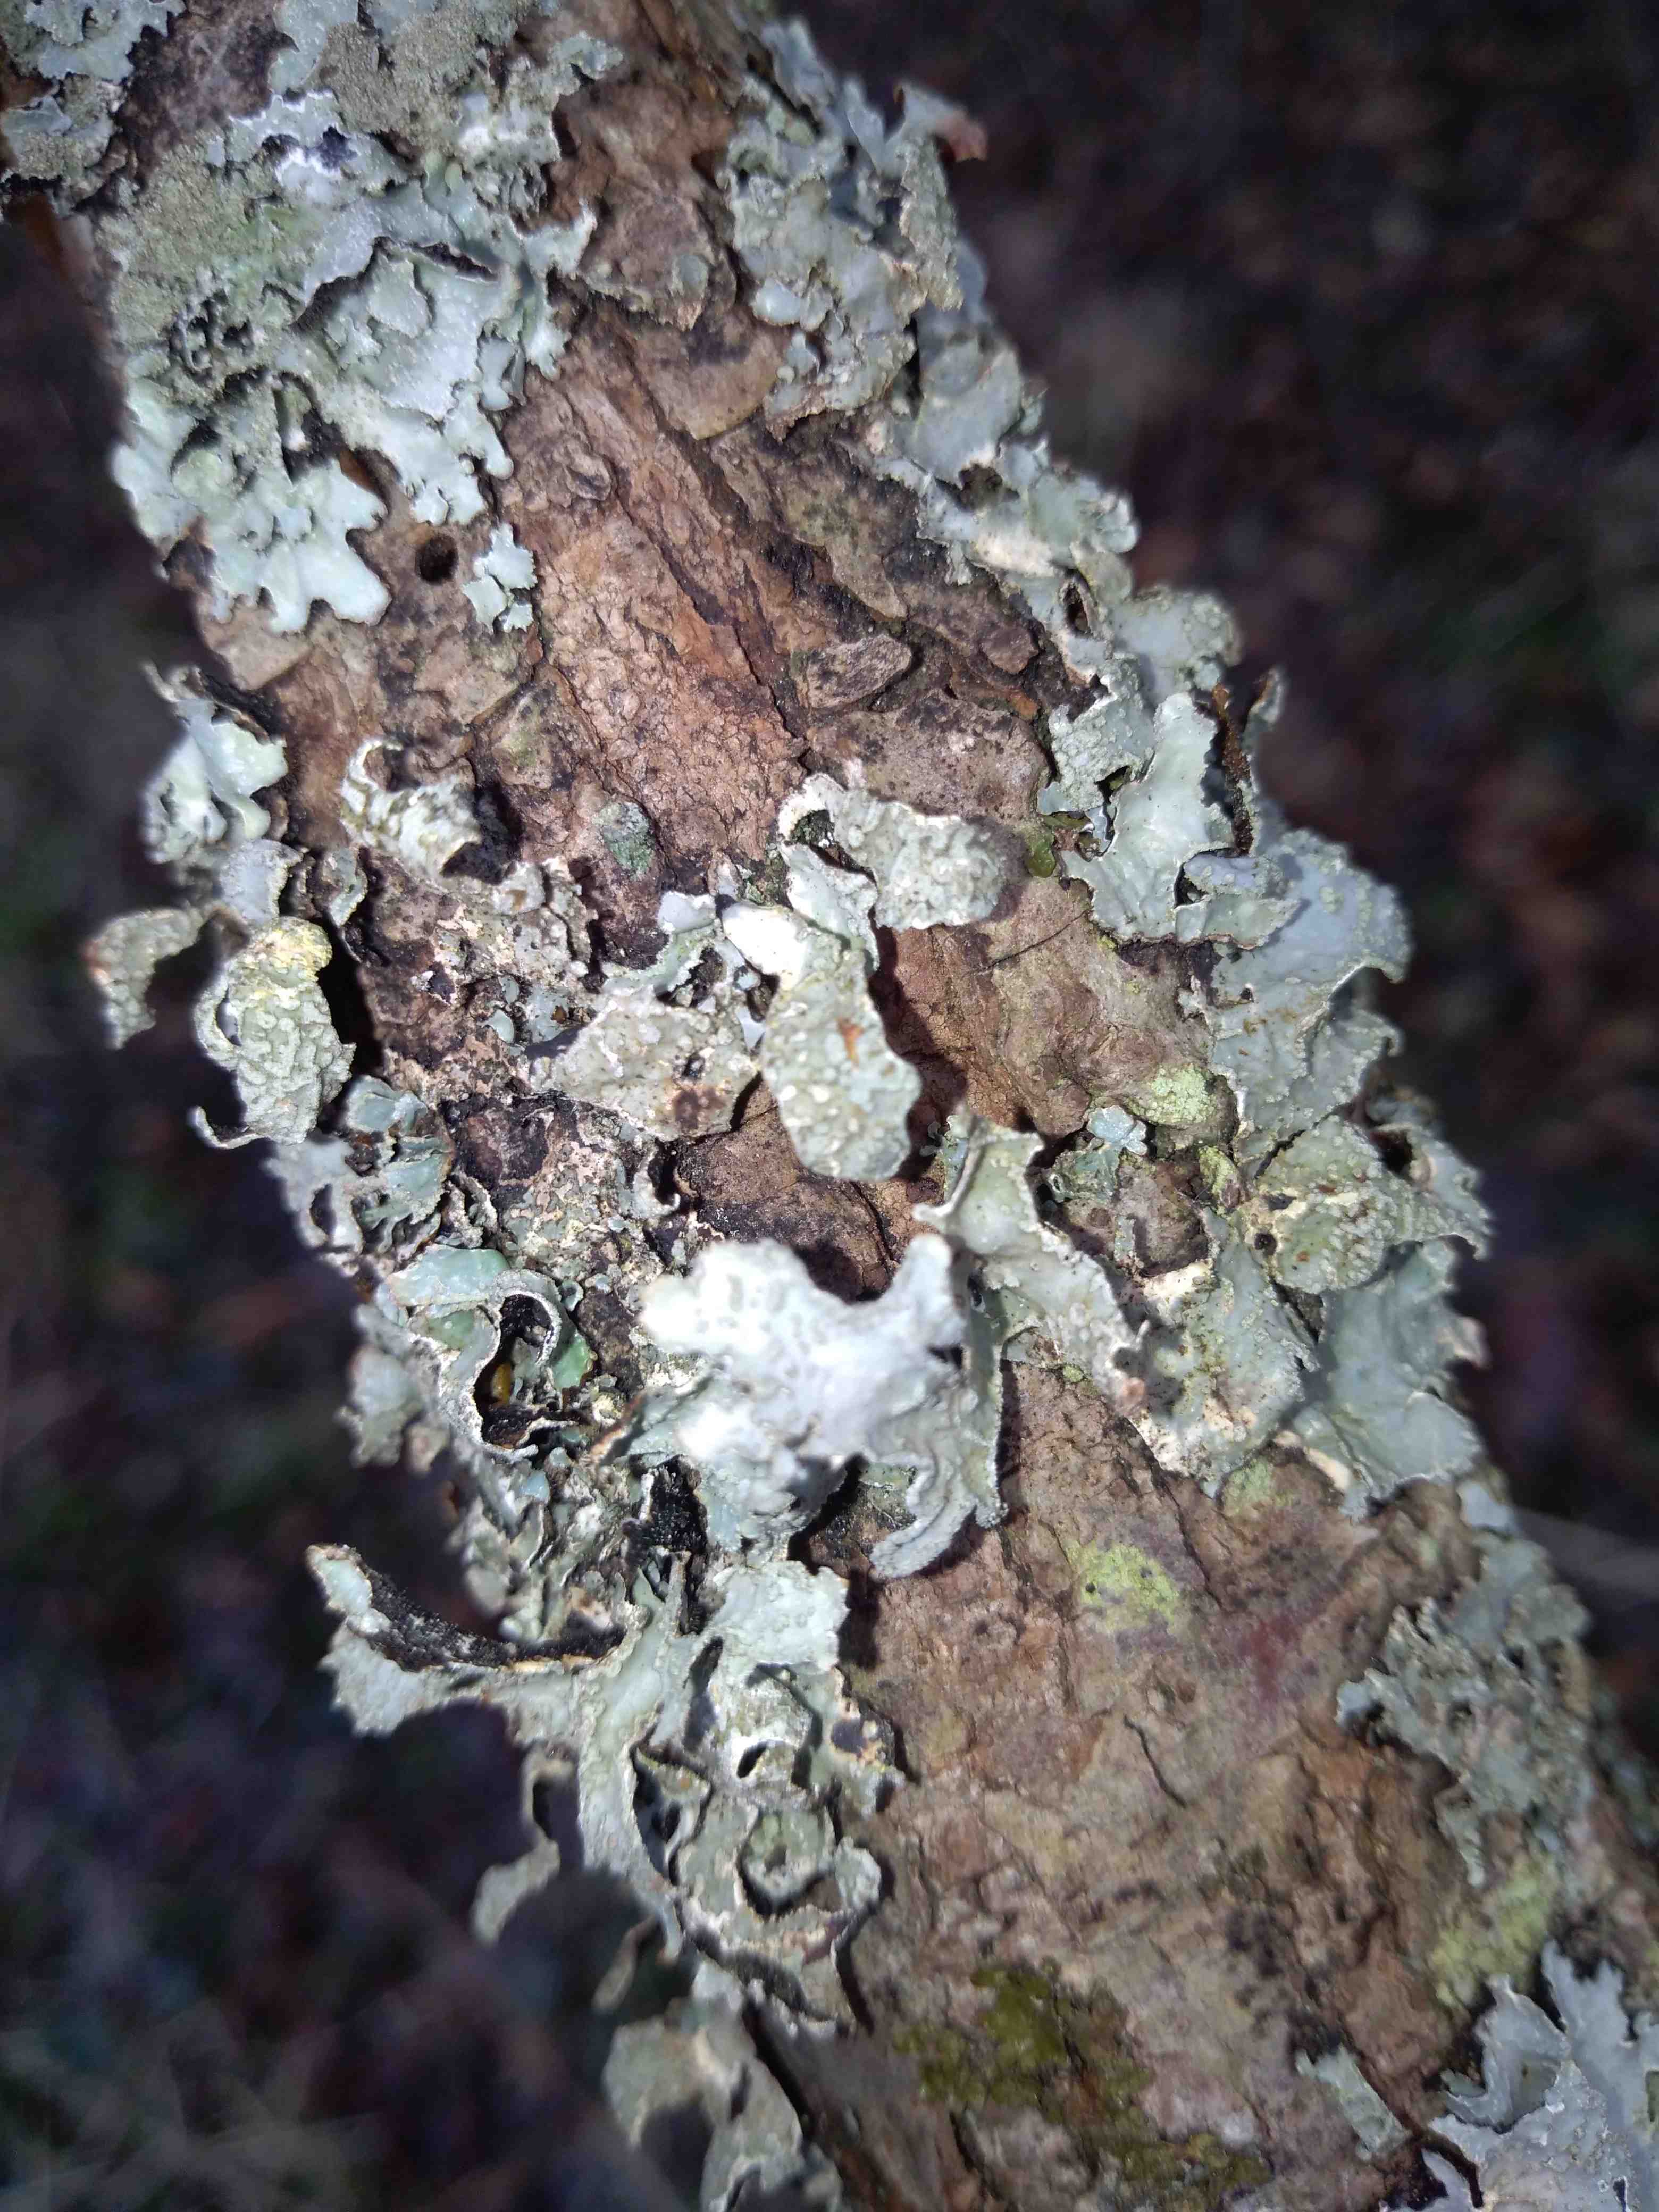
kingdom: Fungi
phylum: Ascomycota
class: Lecanoromycetes
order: Lecanorales
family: Parmeliaceae
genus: Parmelia
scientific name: Parmelia sulcata
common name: rynket skållav
